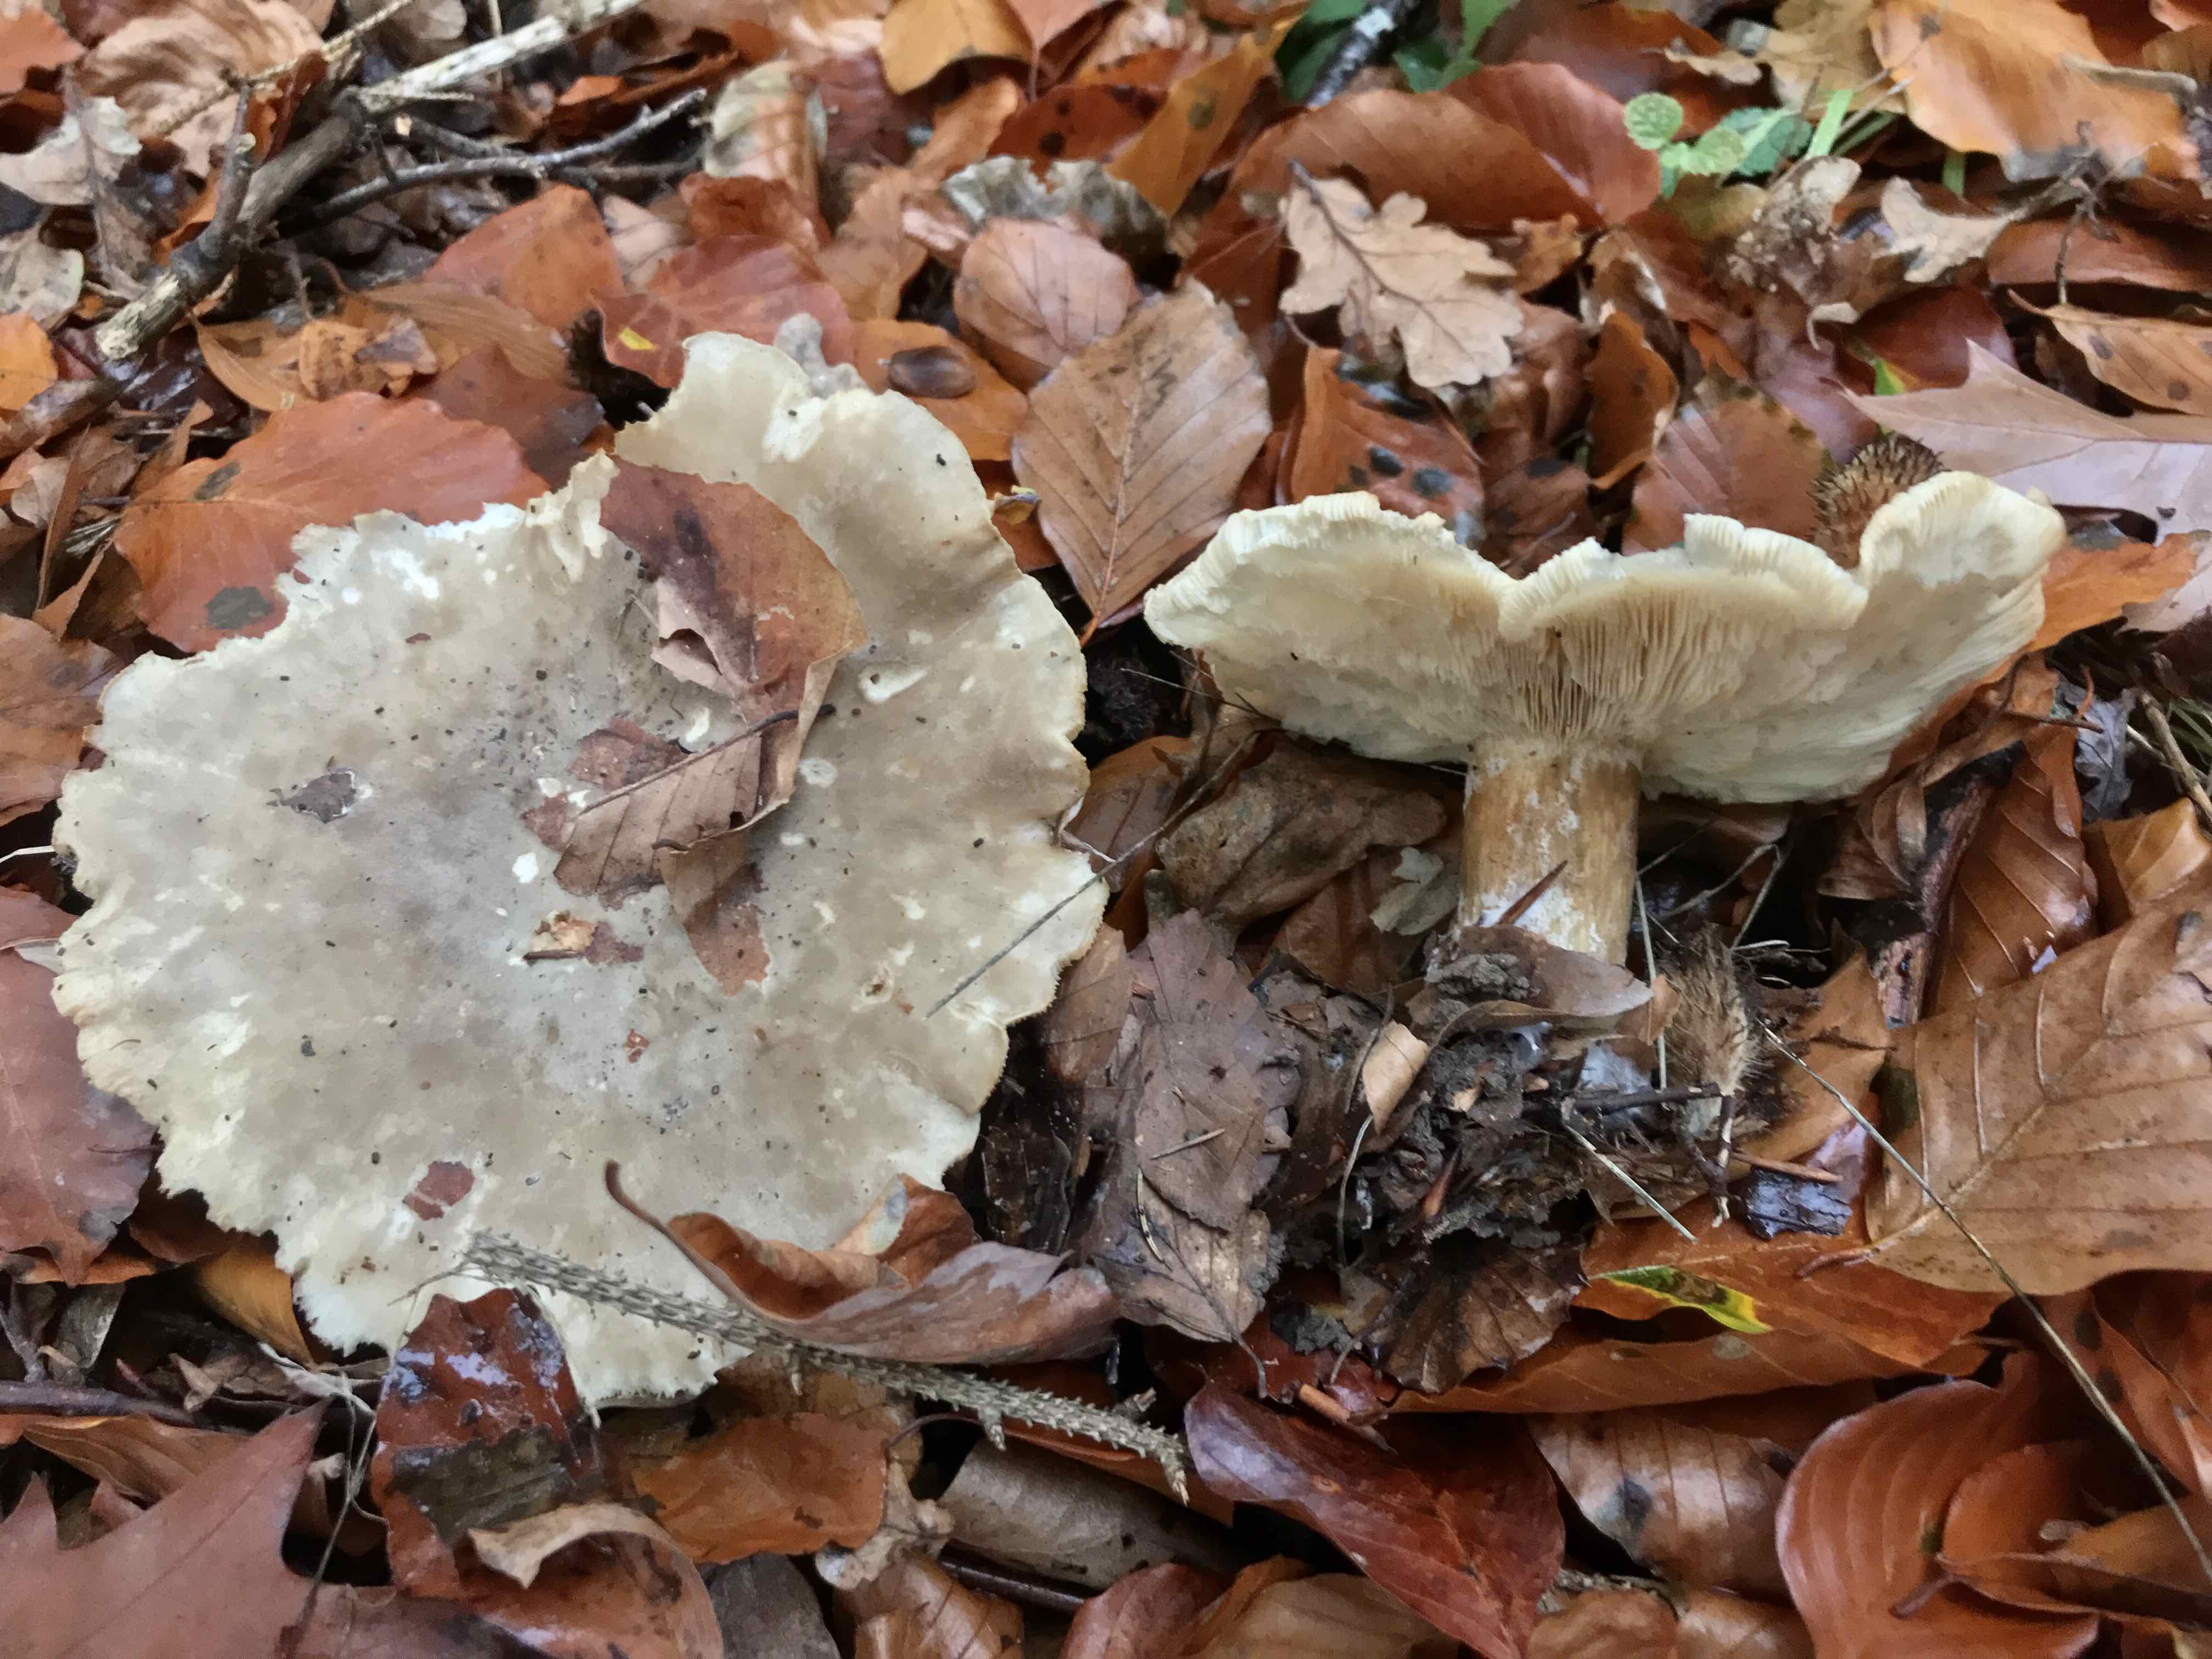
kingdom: Fungi
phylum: Basidiomycota
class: Agaricomycetes
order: Agaricales
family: Tricholomataceae
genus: Clitocybe
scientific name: Clitocybe nebularis
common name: tåge-tragthat
